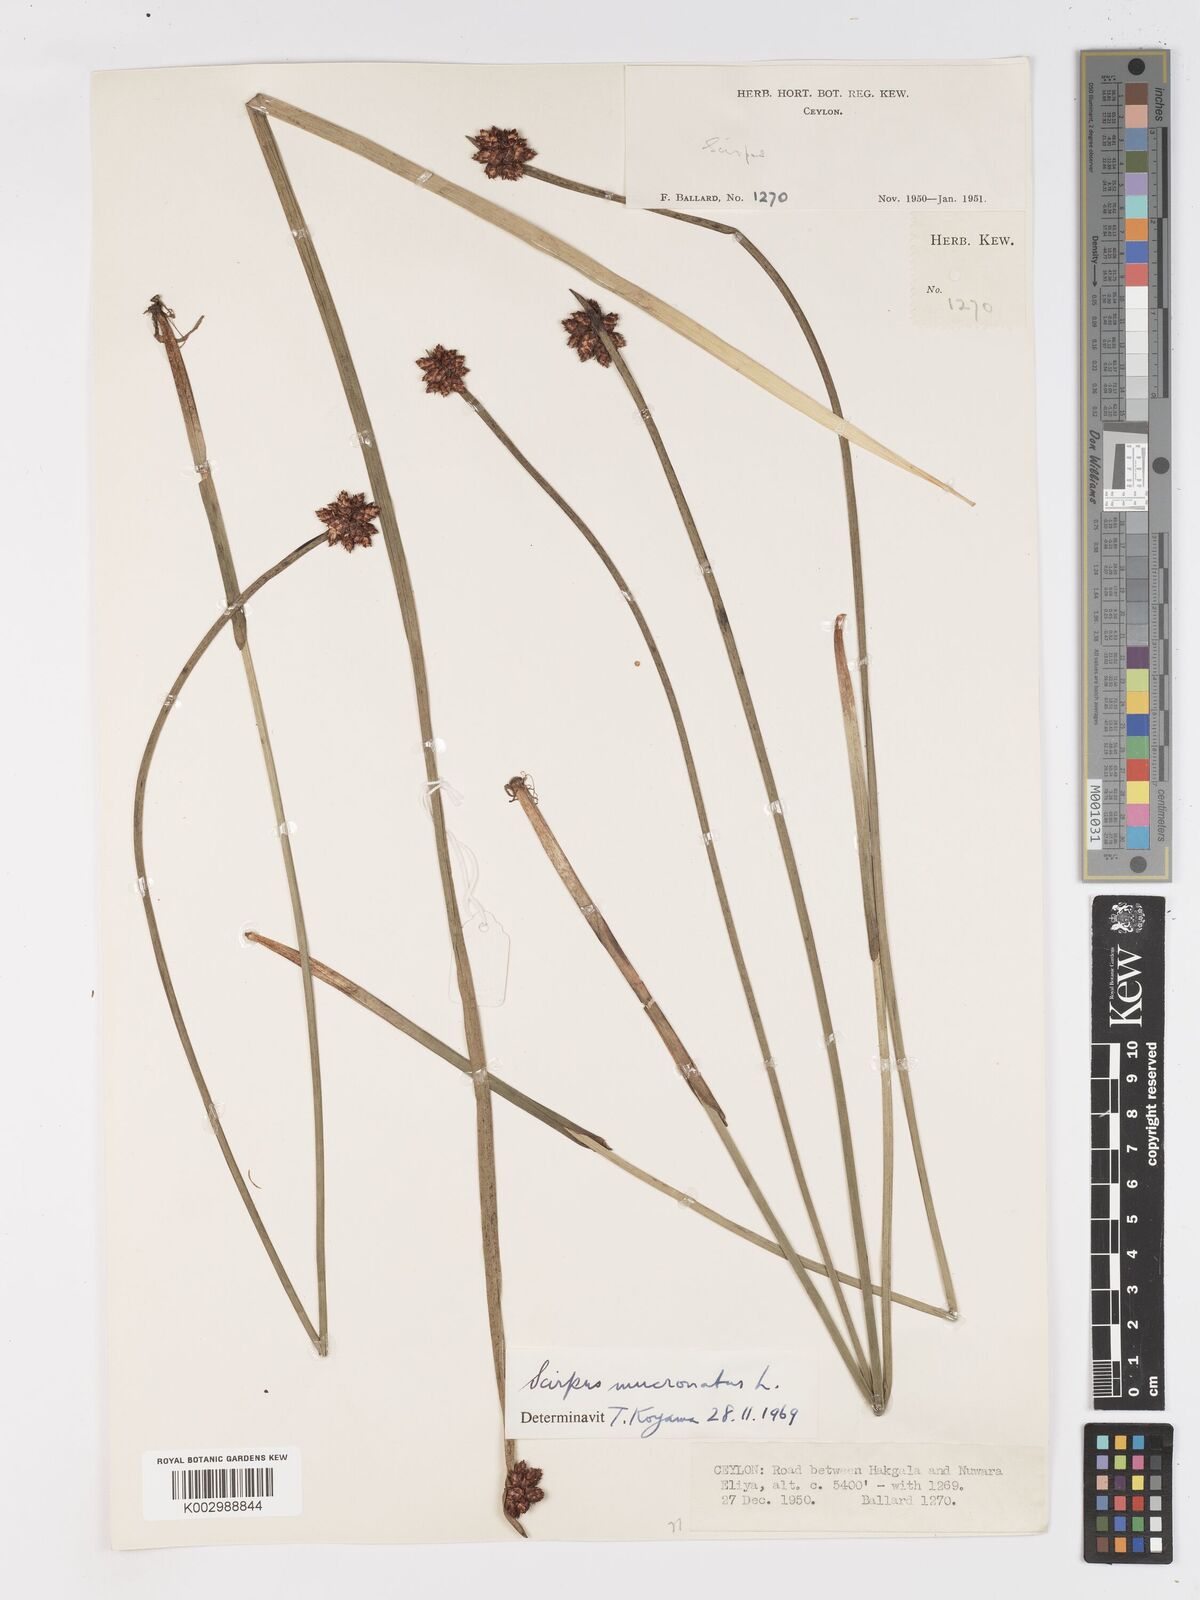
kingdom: Plantae
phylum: Tracheophyta
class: Liliopsida
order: Poales
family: Cyperaceae
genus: Schoenoplectiella
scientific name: Schoenoplectiella mucronata
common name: Bog bulrush
